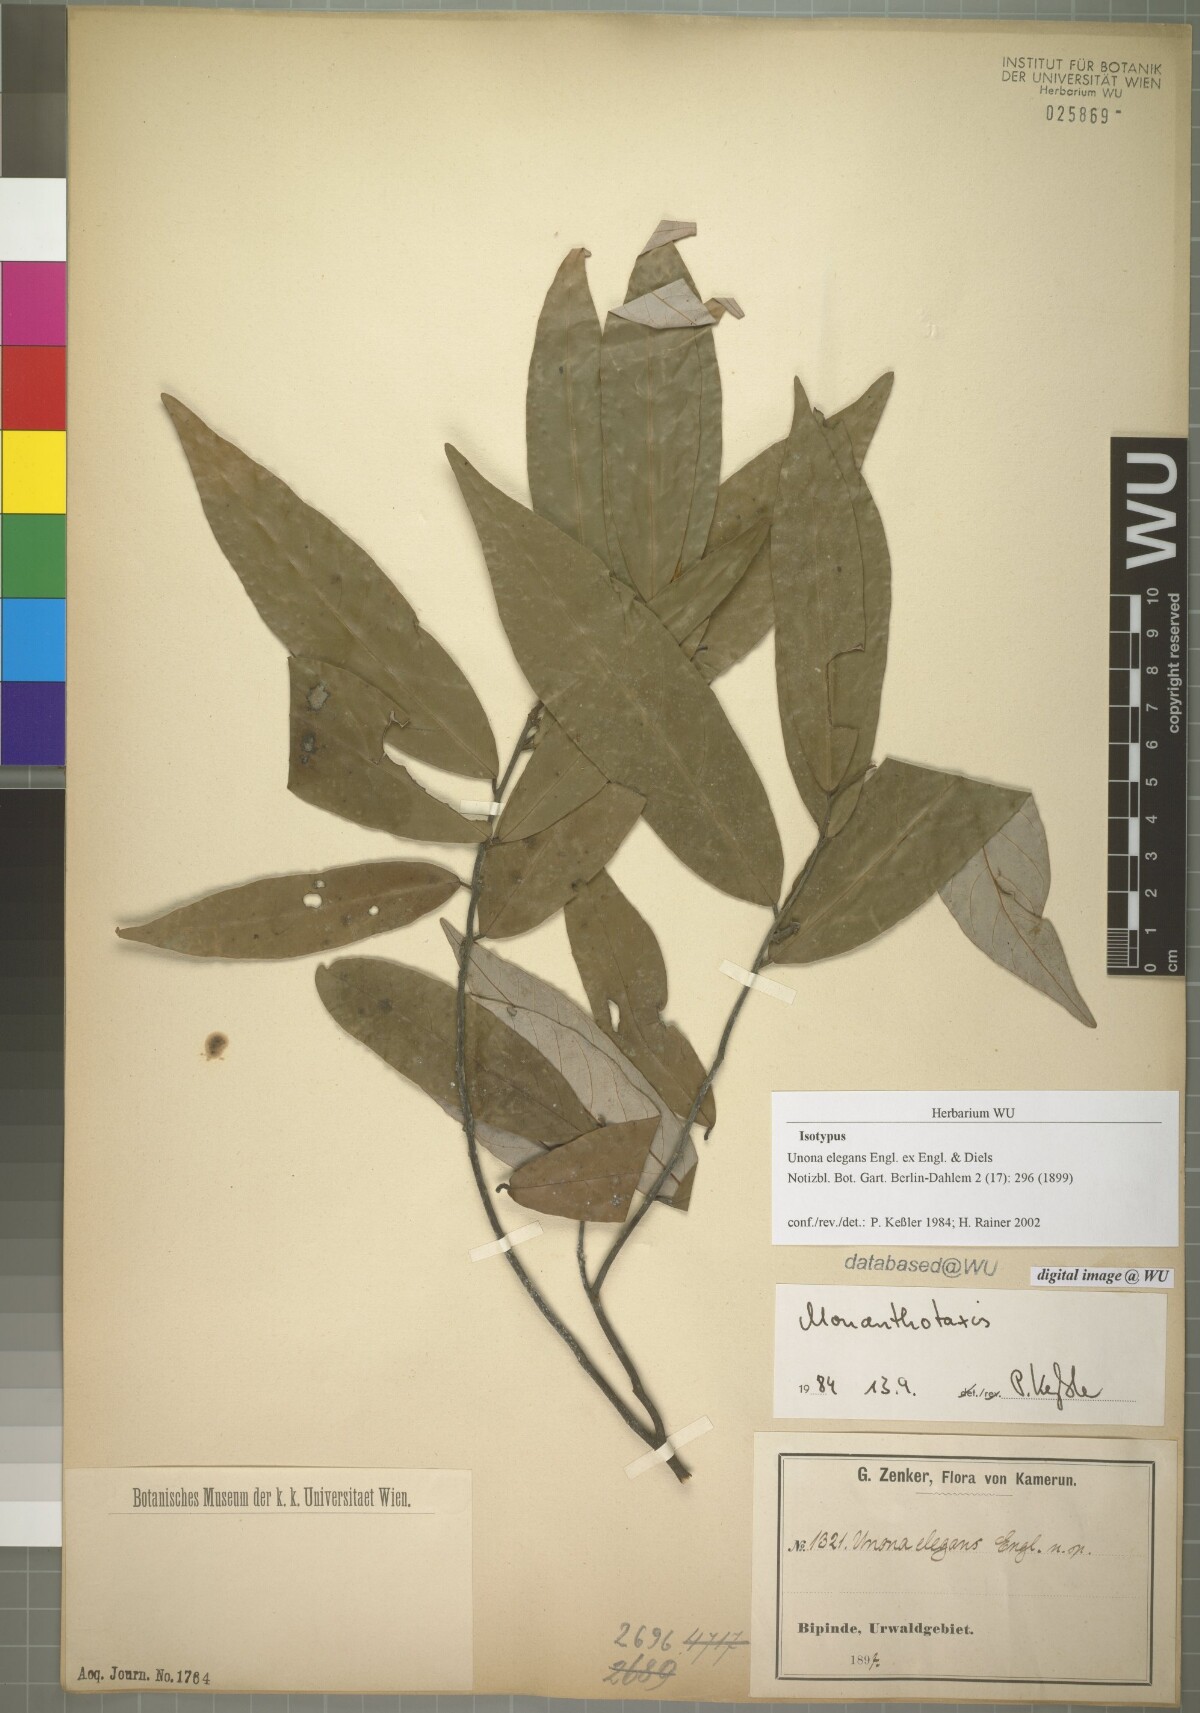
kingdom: Plantae
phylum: Tracheophyta
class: Magnoliopsida
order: Magnoliales
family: Annonaceae
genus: Monanthotaxis
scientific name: Monanthotaxis elegans
